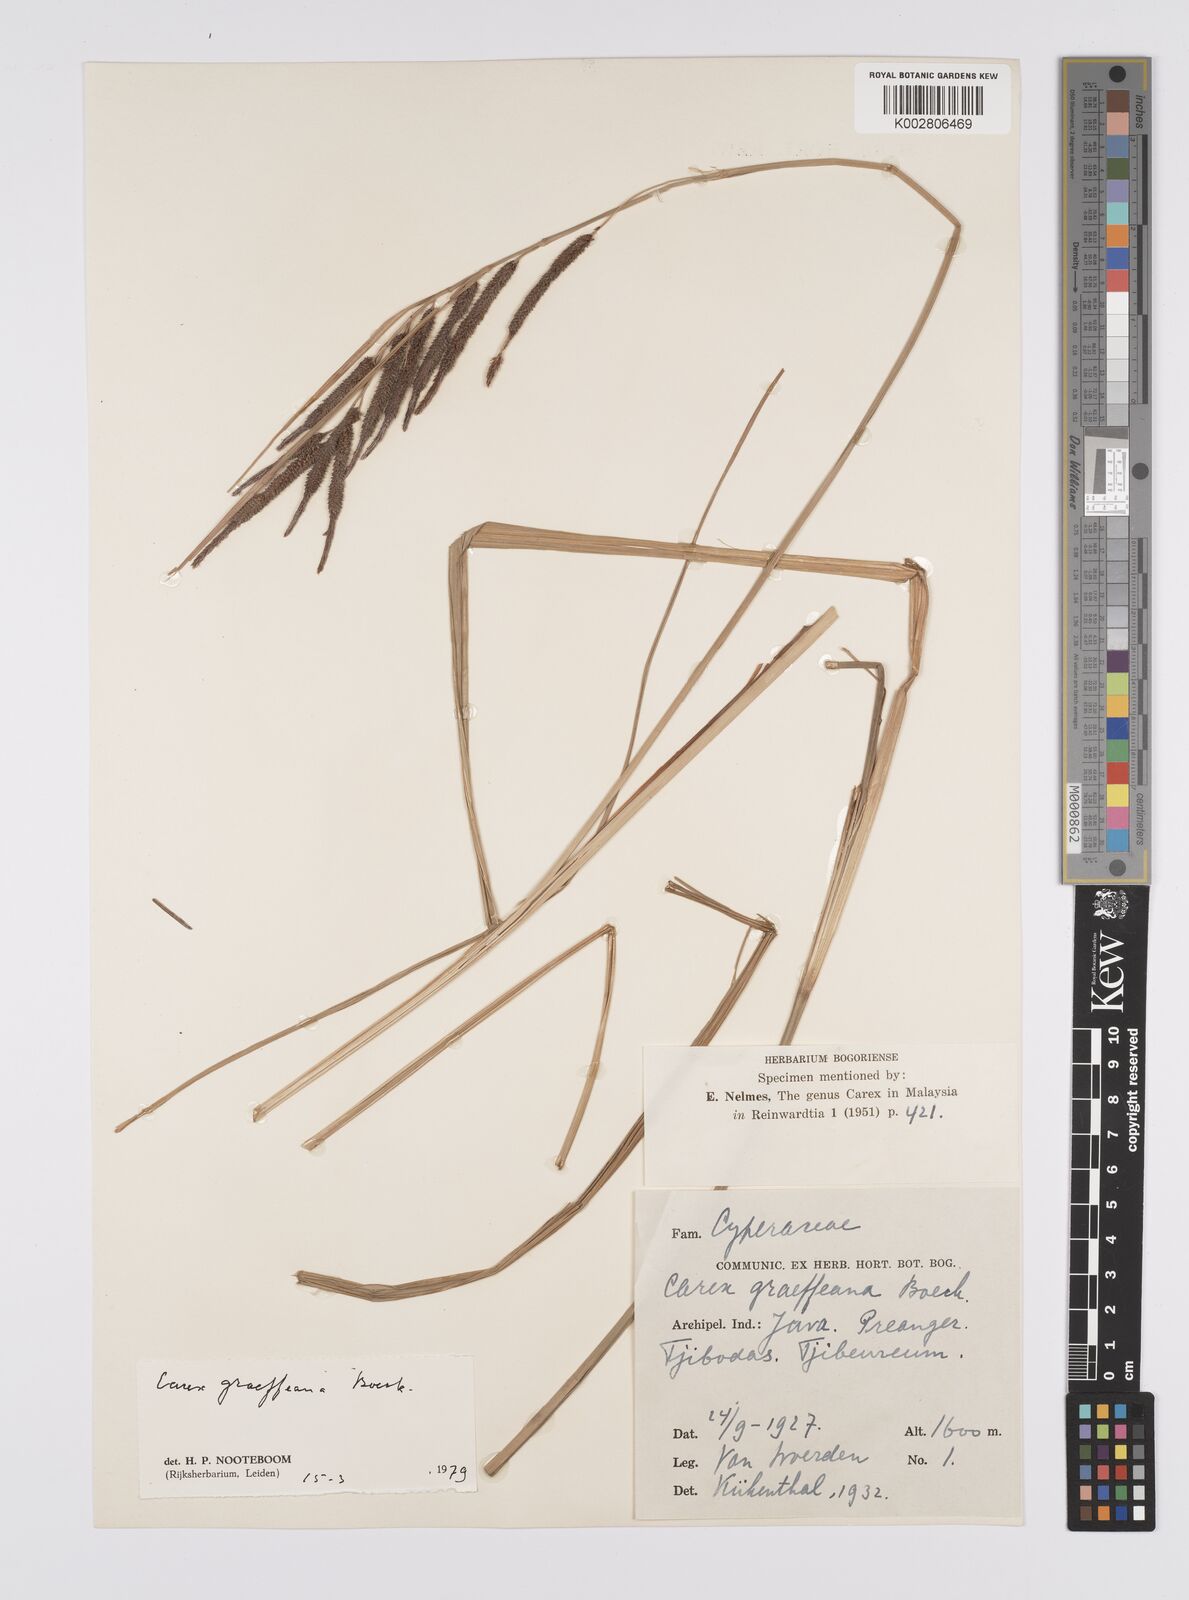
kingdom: Plantae
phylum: Tracheophyta
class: Liliopsida
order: Poales
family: Cyperaceae
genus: Carex
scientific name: Carex graeffeana
